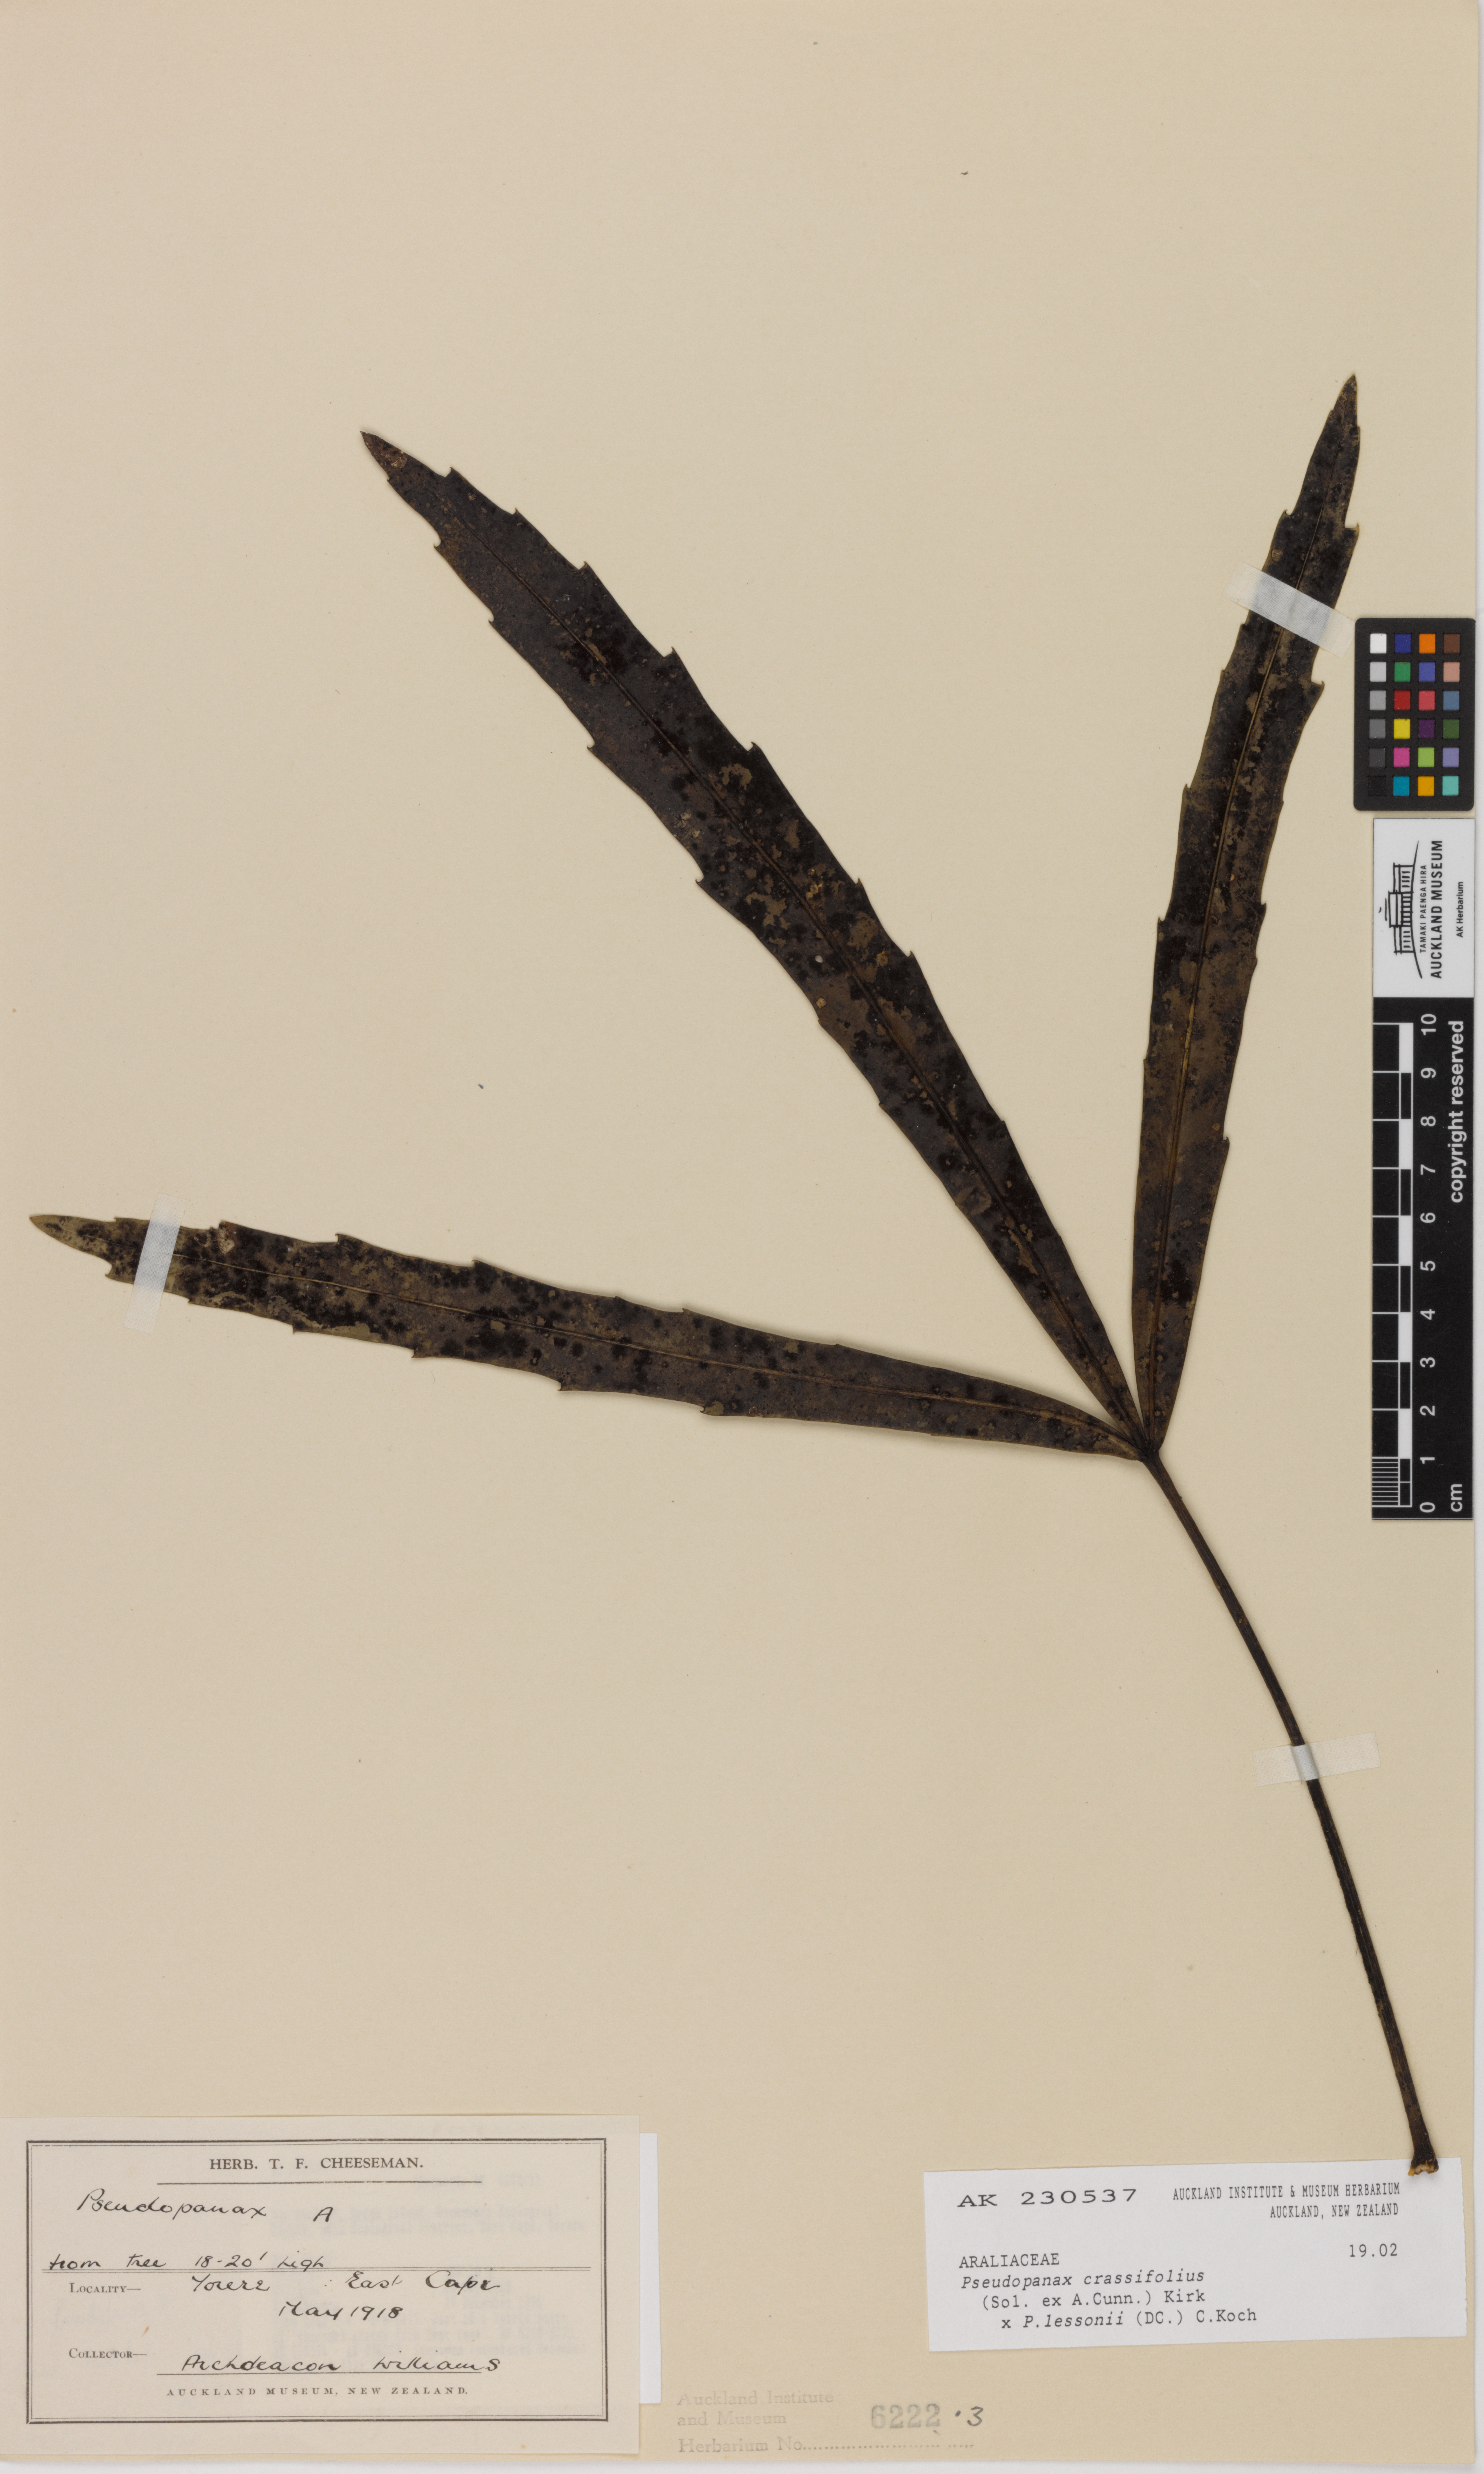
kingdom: Plantae
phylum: Tracheophyta
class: Magnoliopsida
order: Apiales
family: Araliaceae
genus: Pseudopanax
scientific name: Pseudopanax
